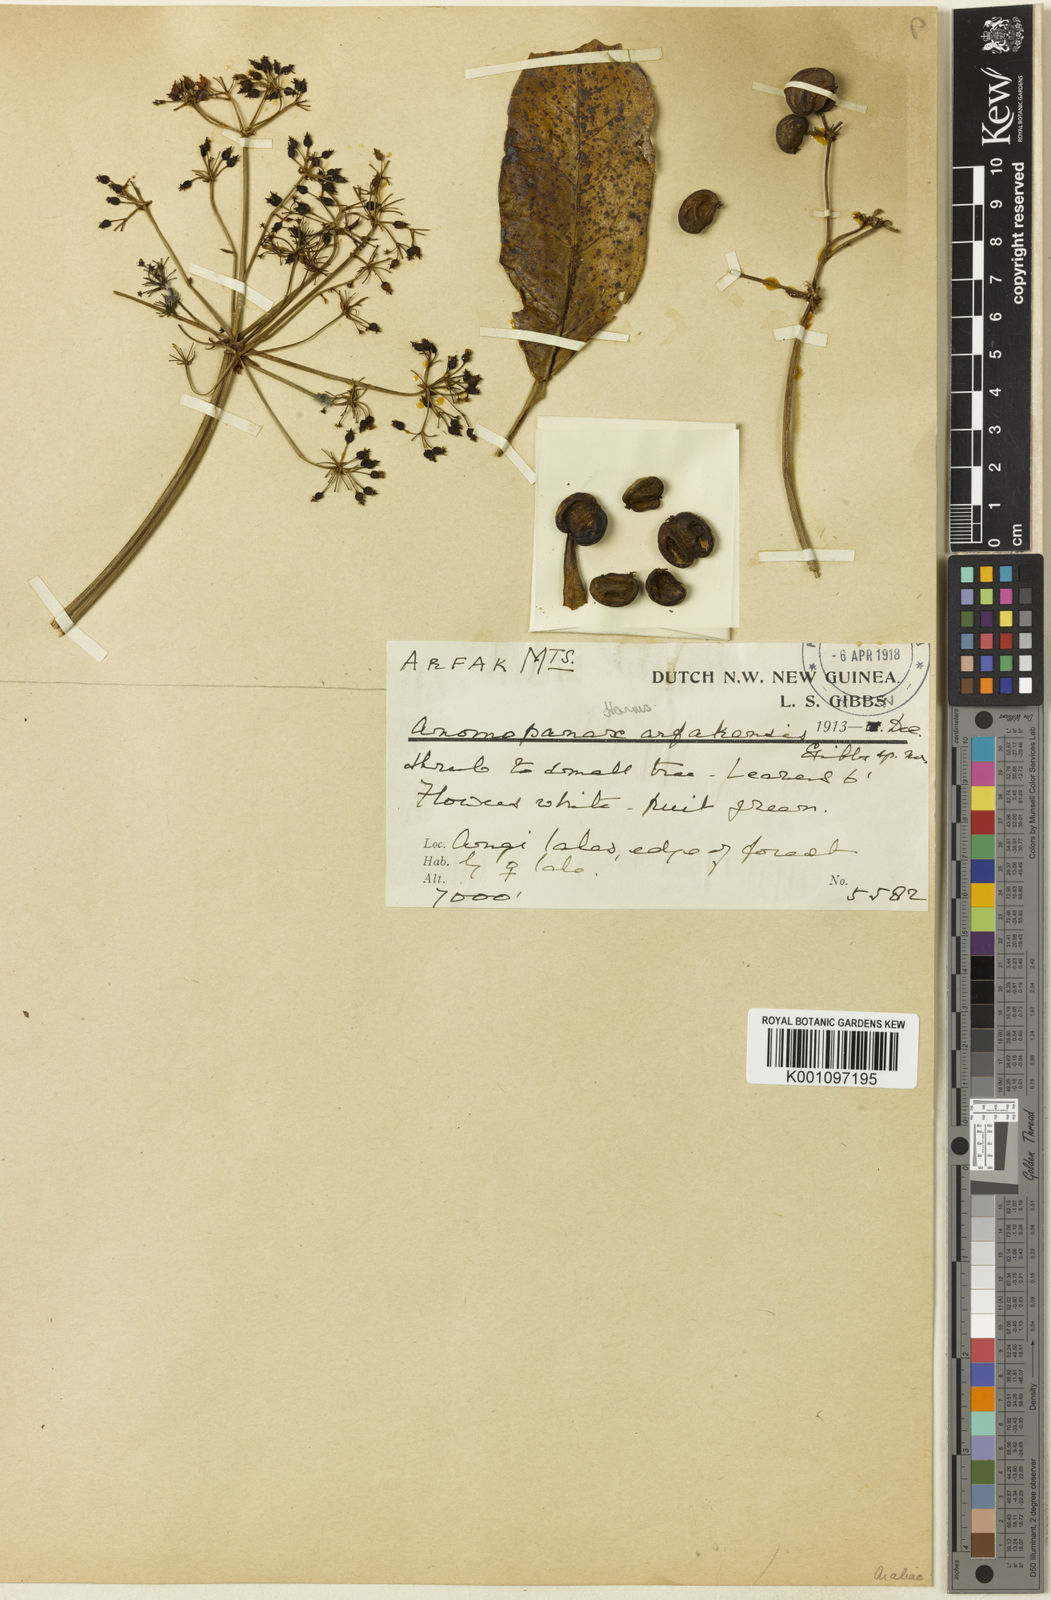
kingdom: Plantae
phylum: Tracheophyta
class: Magnoliopsida
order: Apiales
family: Apiaceae
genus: Mackinlaya
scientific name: Mackinlaya celebica
